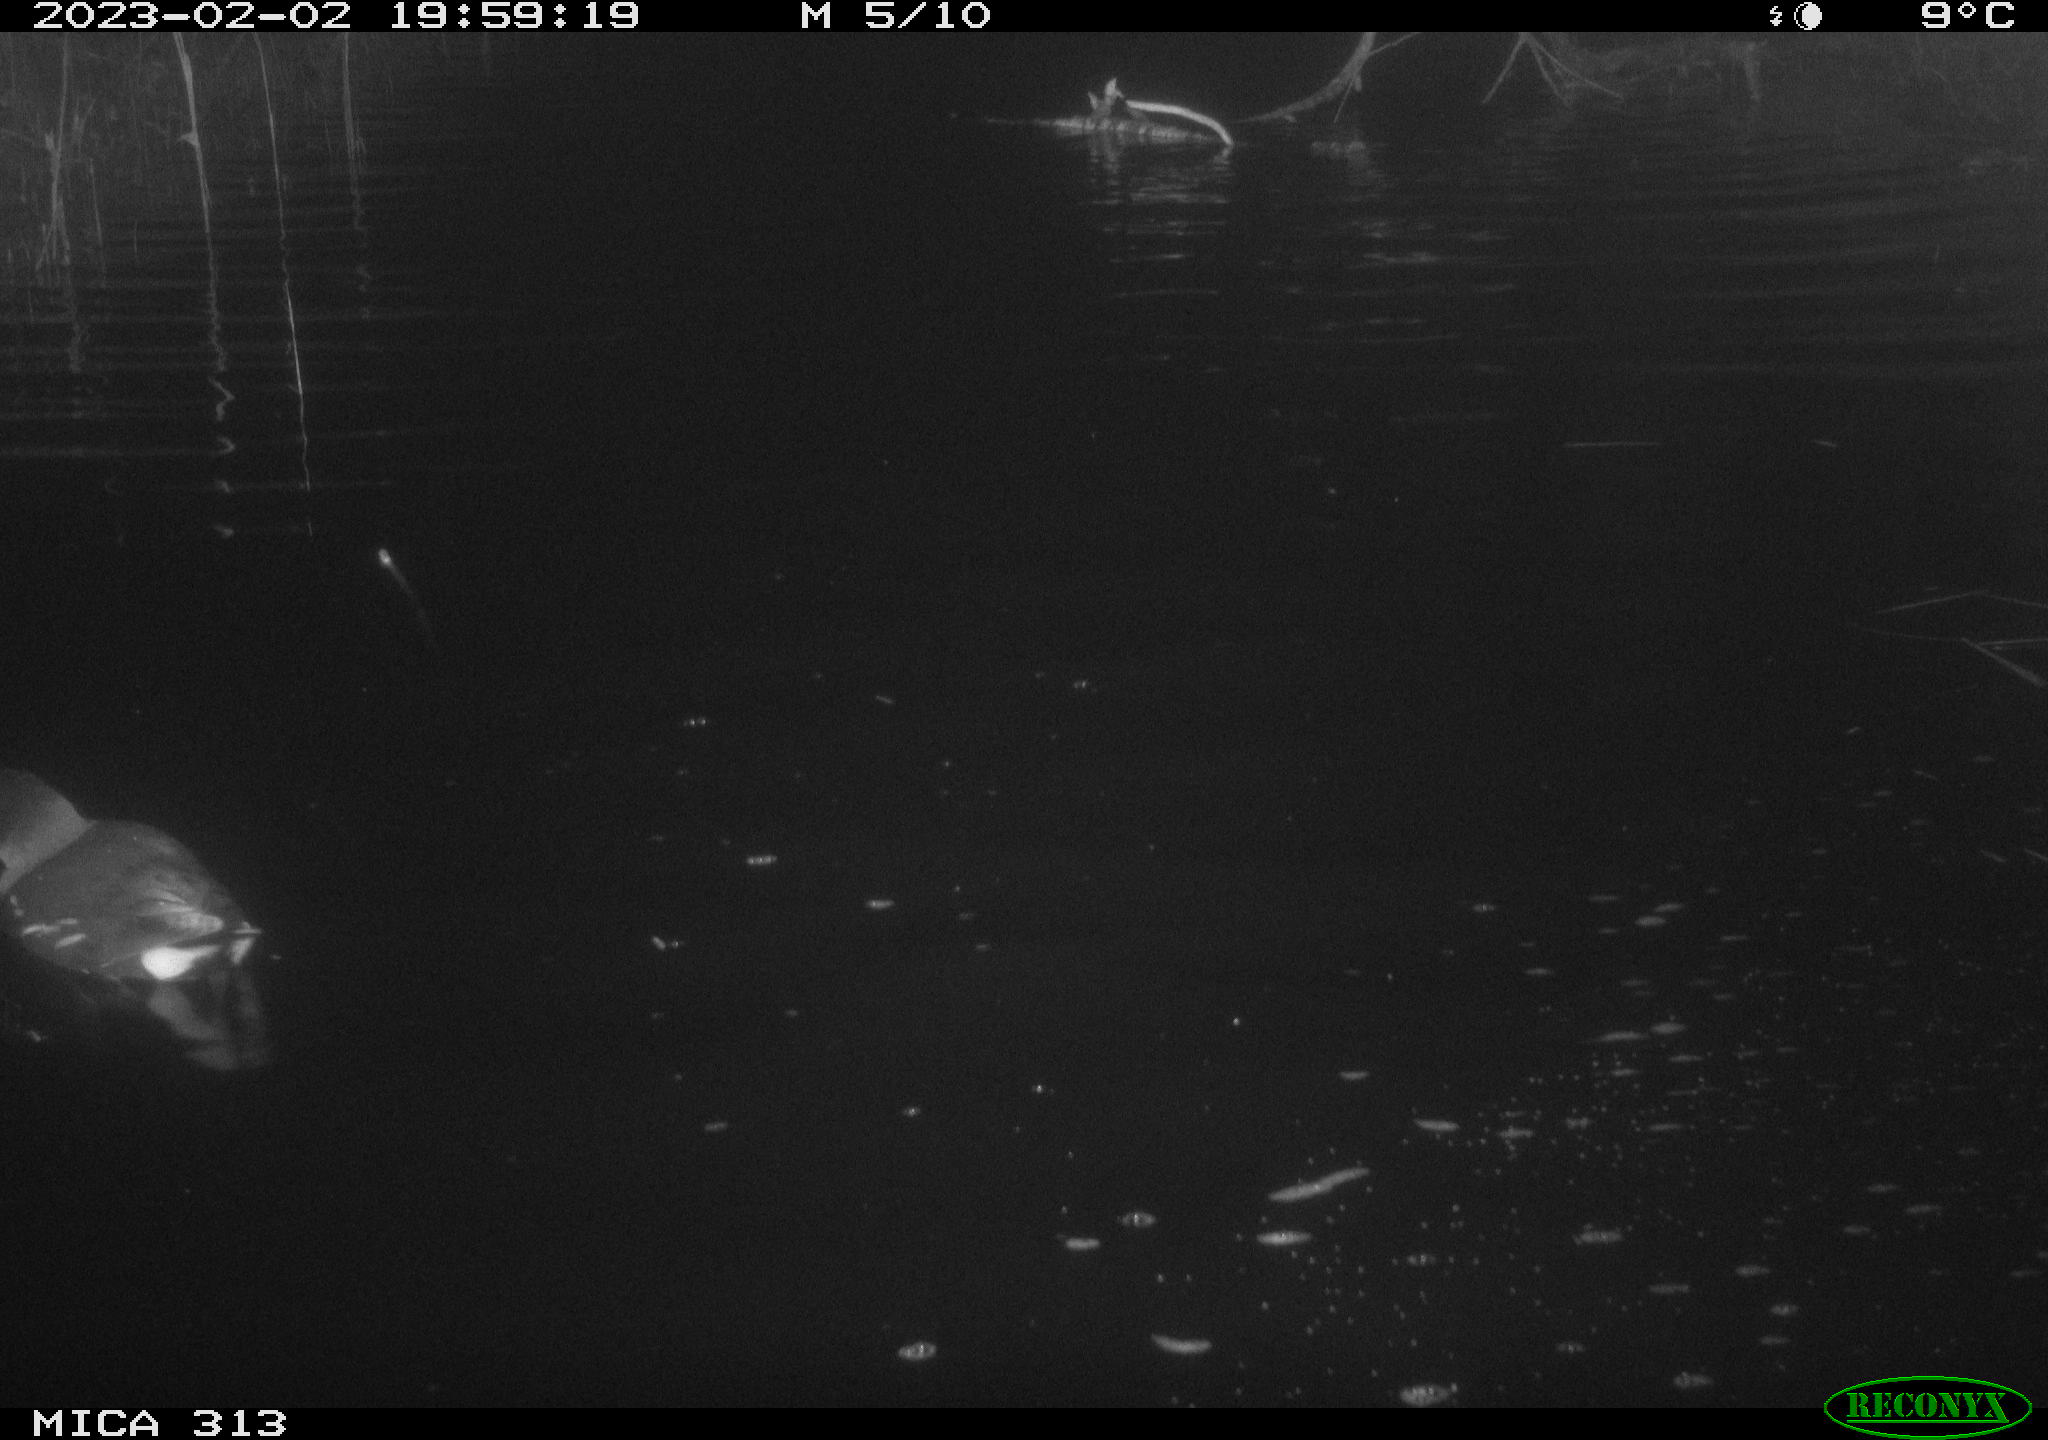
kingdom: Animalia
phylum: Chordata
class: Aves
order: Gruiformes
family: Rallidae
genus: Gallinula
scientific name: Gallinula chloropus
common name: Common moorhen
